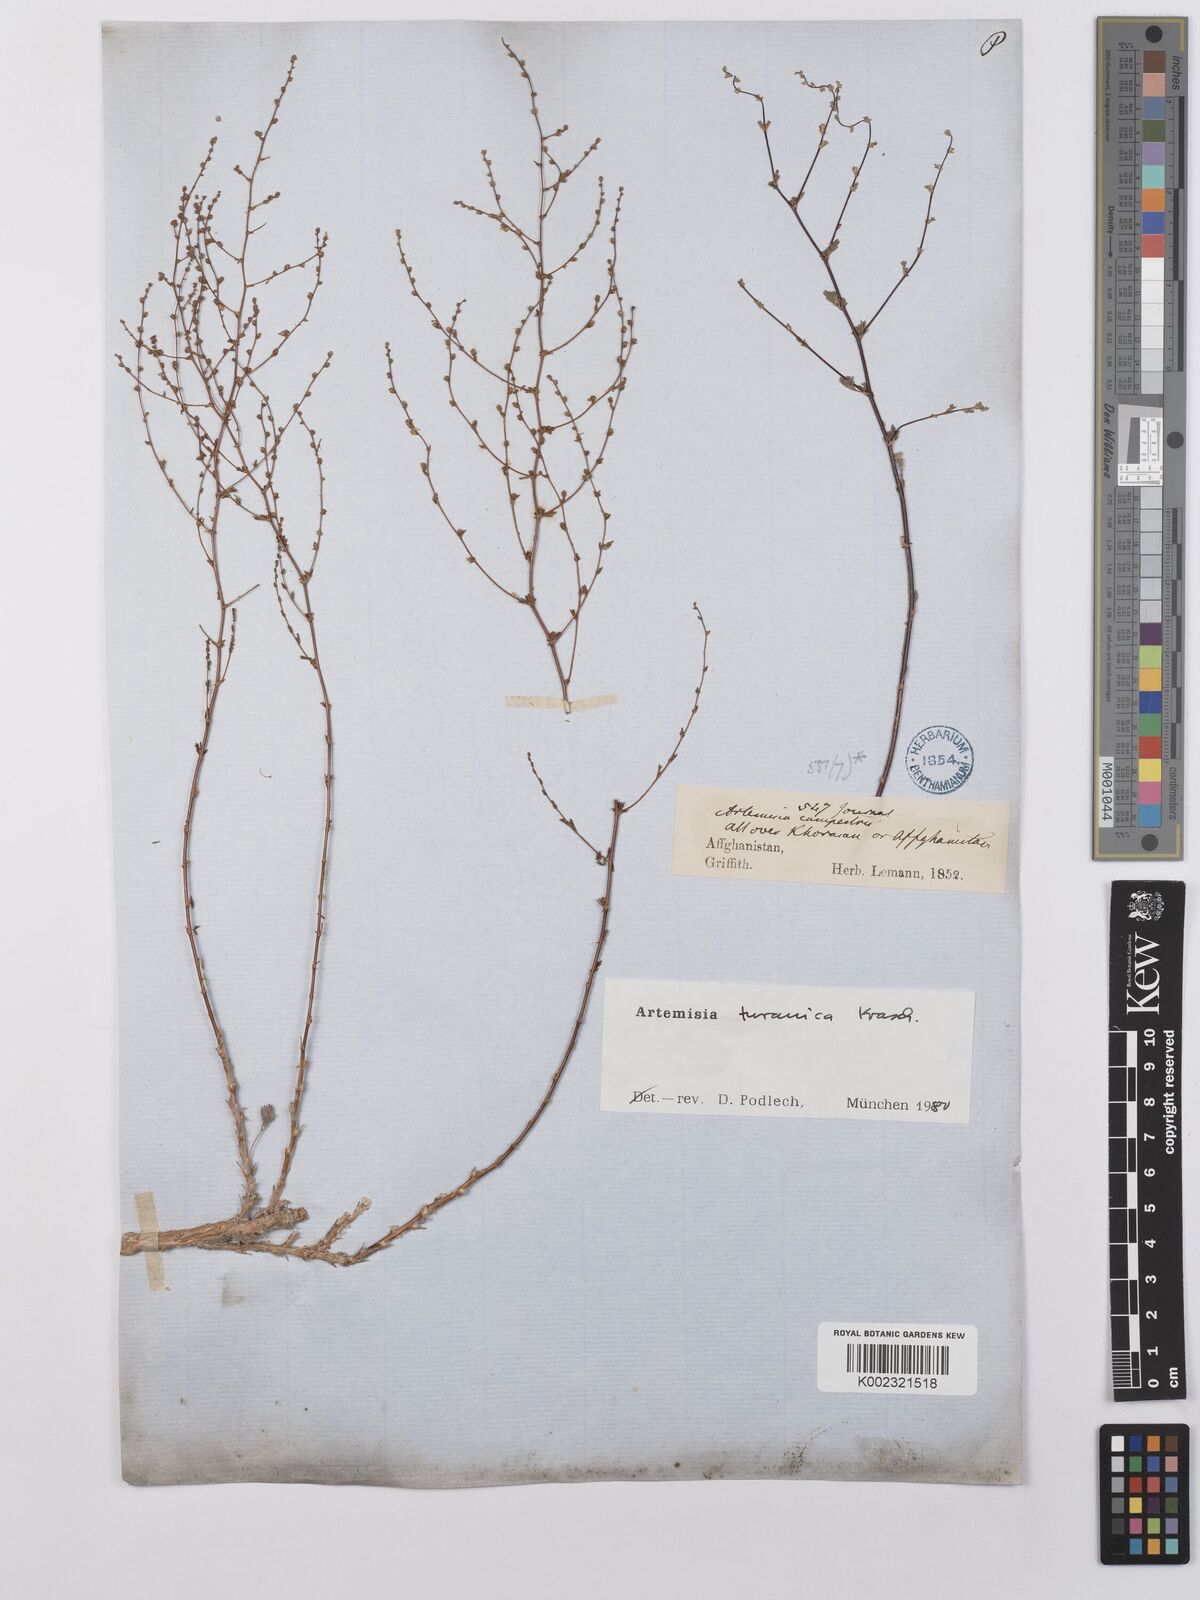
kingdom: Plantae
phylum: Tracheophyta
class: Magnoliopsida
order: Asterales
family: Asteraceae
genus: Artemisia
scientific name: Artemisia turanica
